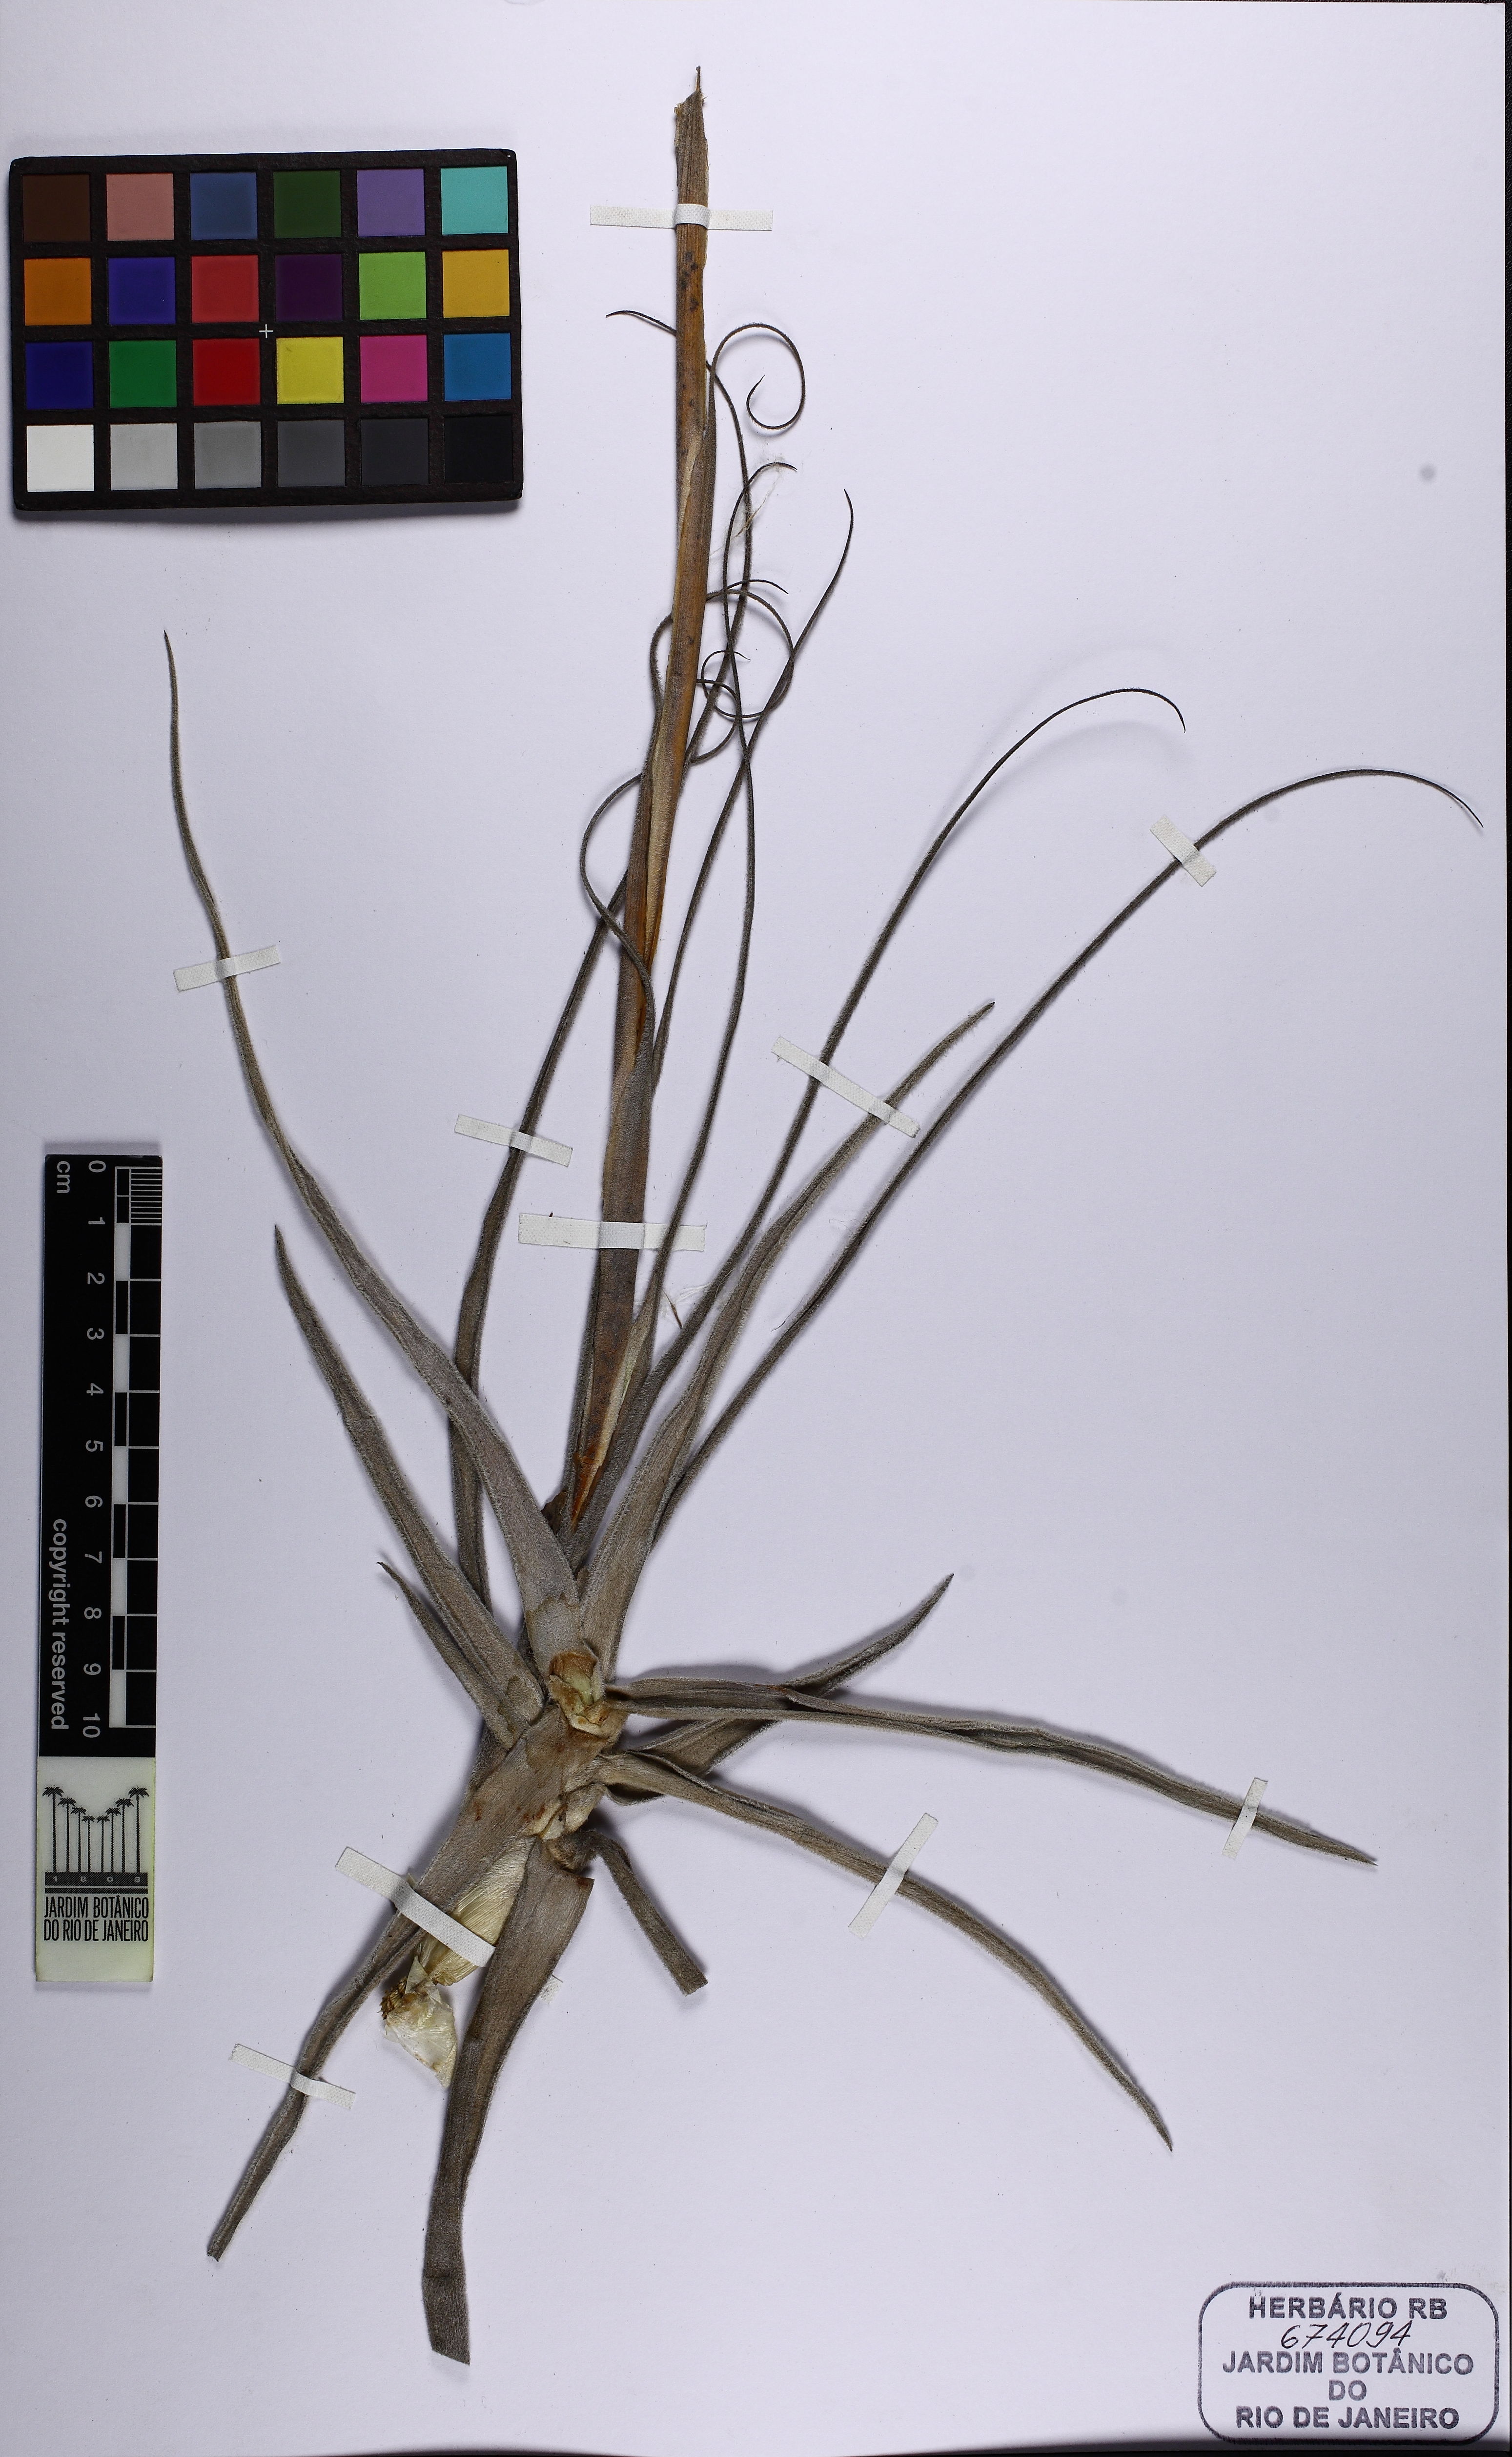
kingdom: Plantae
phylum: Tracheophyta
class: Liliopsida
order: Poales
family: Bromeliaceae
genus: Tillandsia
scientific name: Tillandsia streptocarpa
